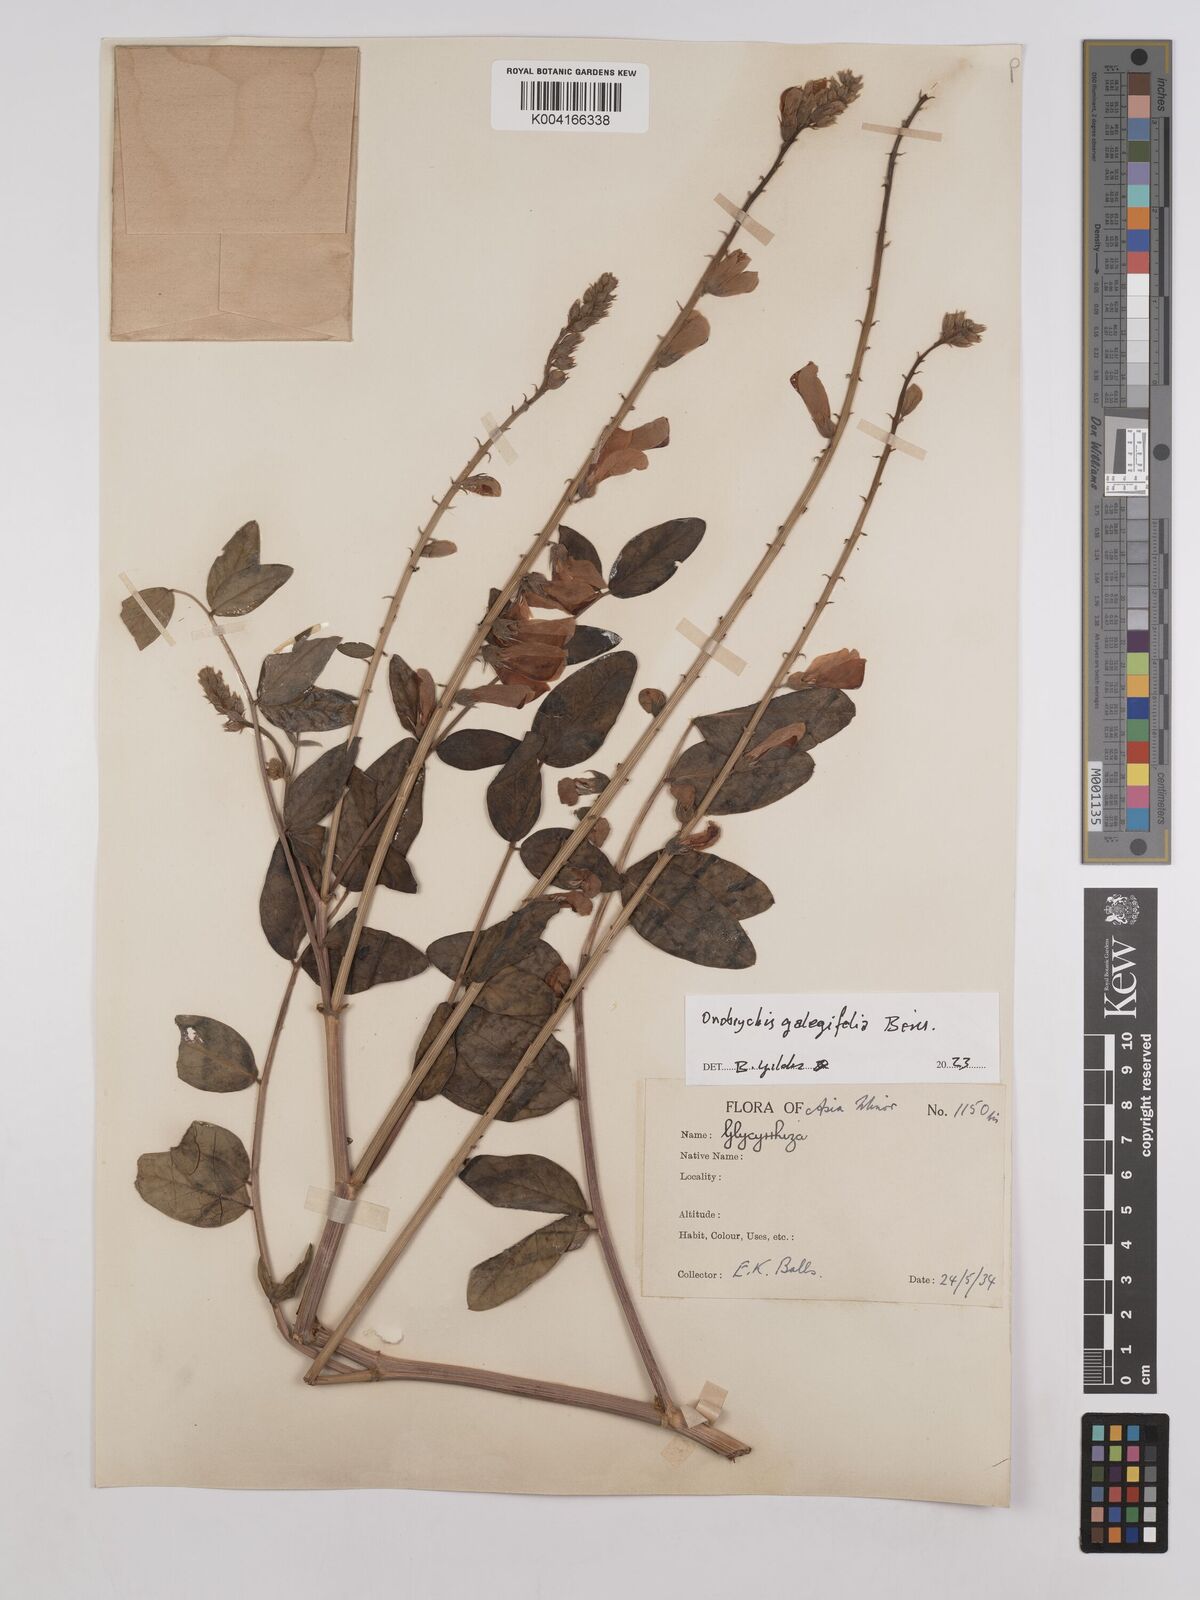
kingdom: Plantae
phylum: Tracheophyta
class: Magnoliopsida
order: Fabales
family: Fabaceae
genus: Onobrychis
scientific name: Onobrychis galegifolia
